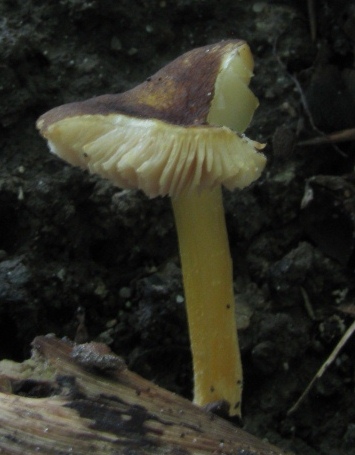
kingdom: Fungi
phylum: Basidiomycota
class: Agaricomycetes
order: Agaricales
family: Pluteaceae
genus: Pluteus
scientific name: Pluteus romellii
